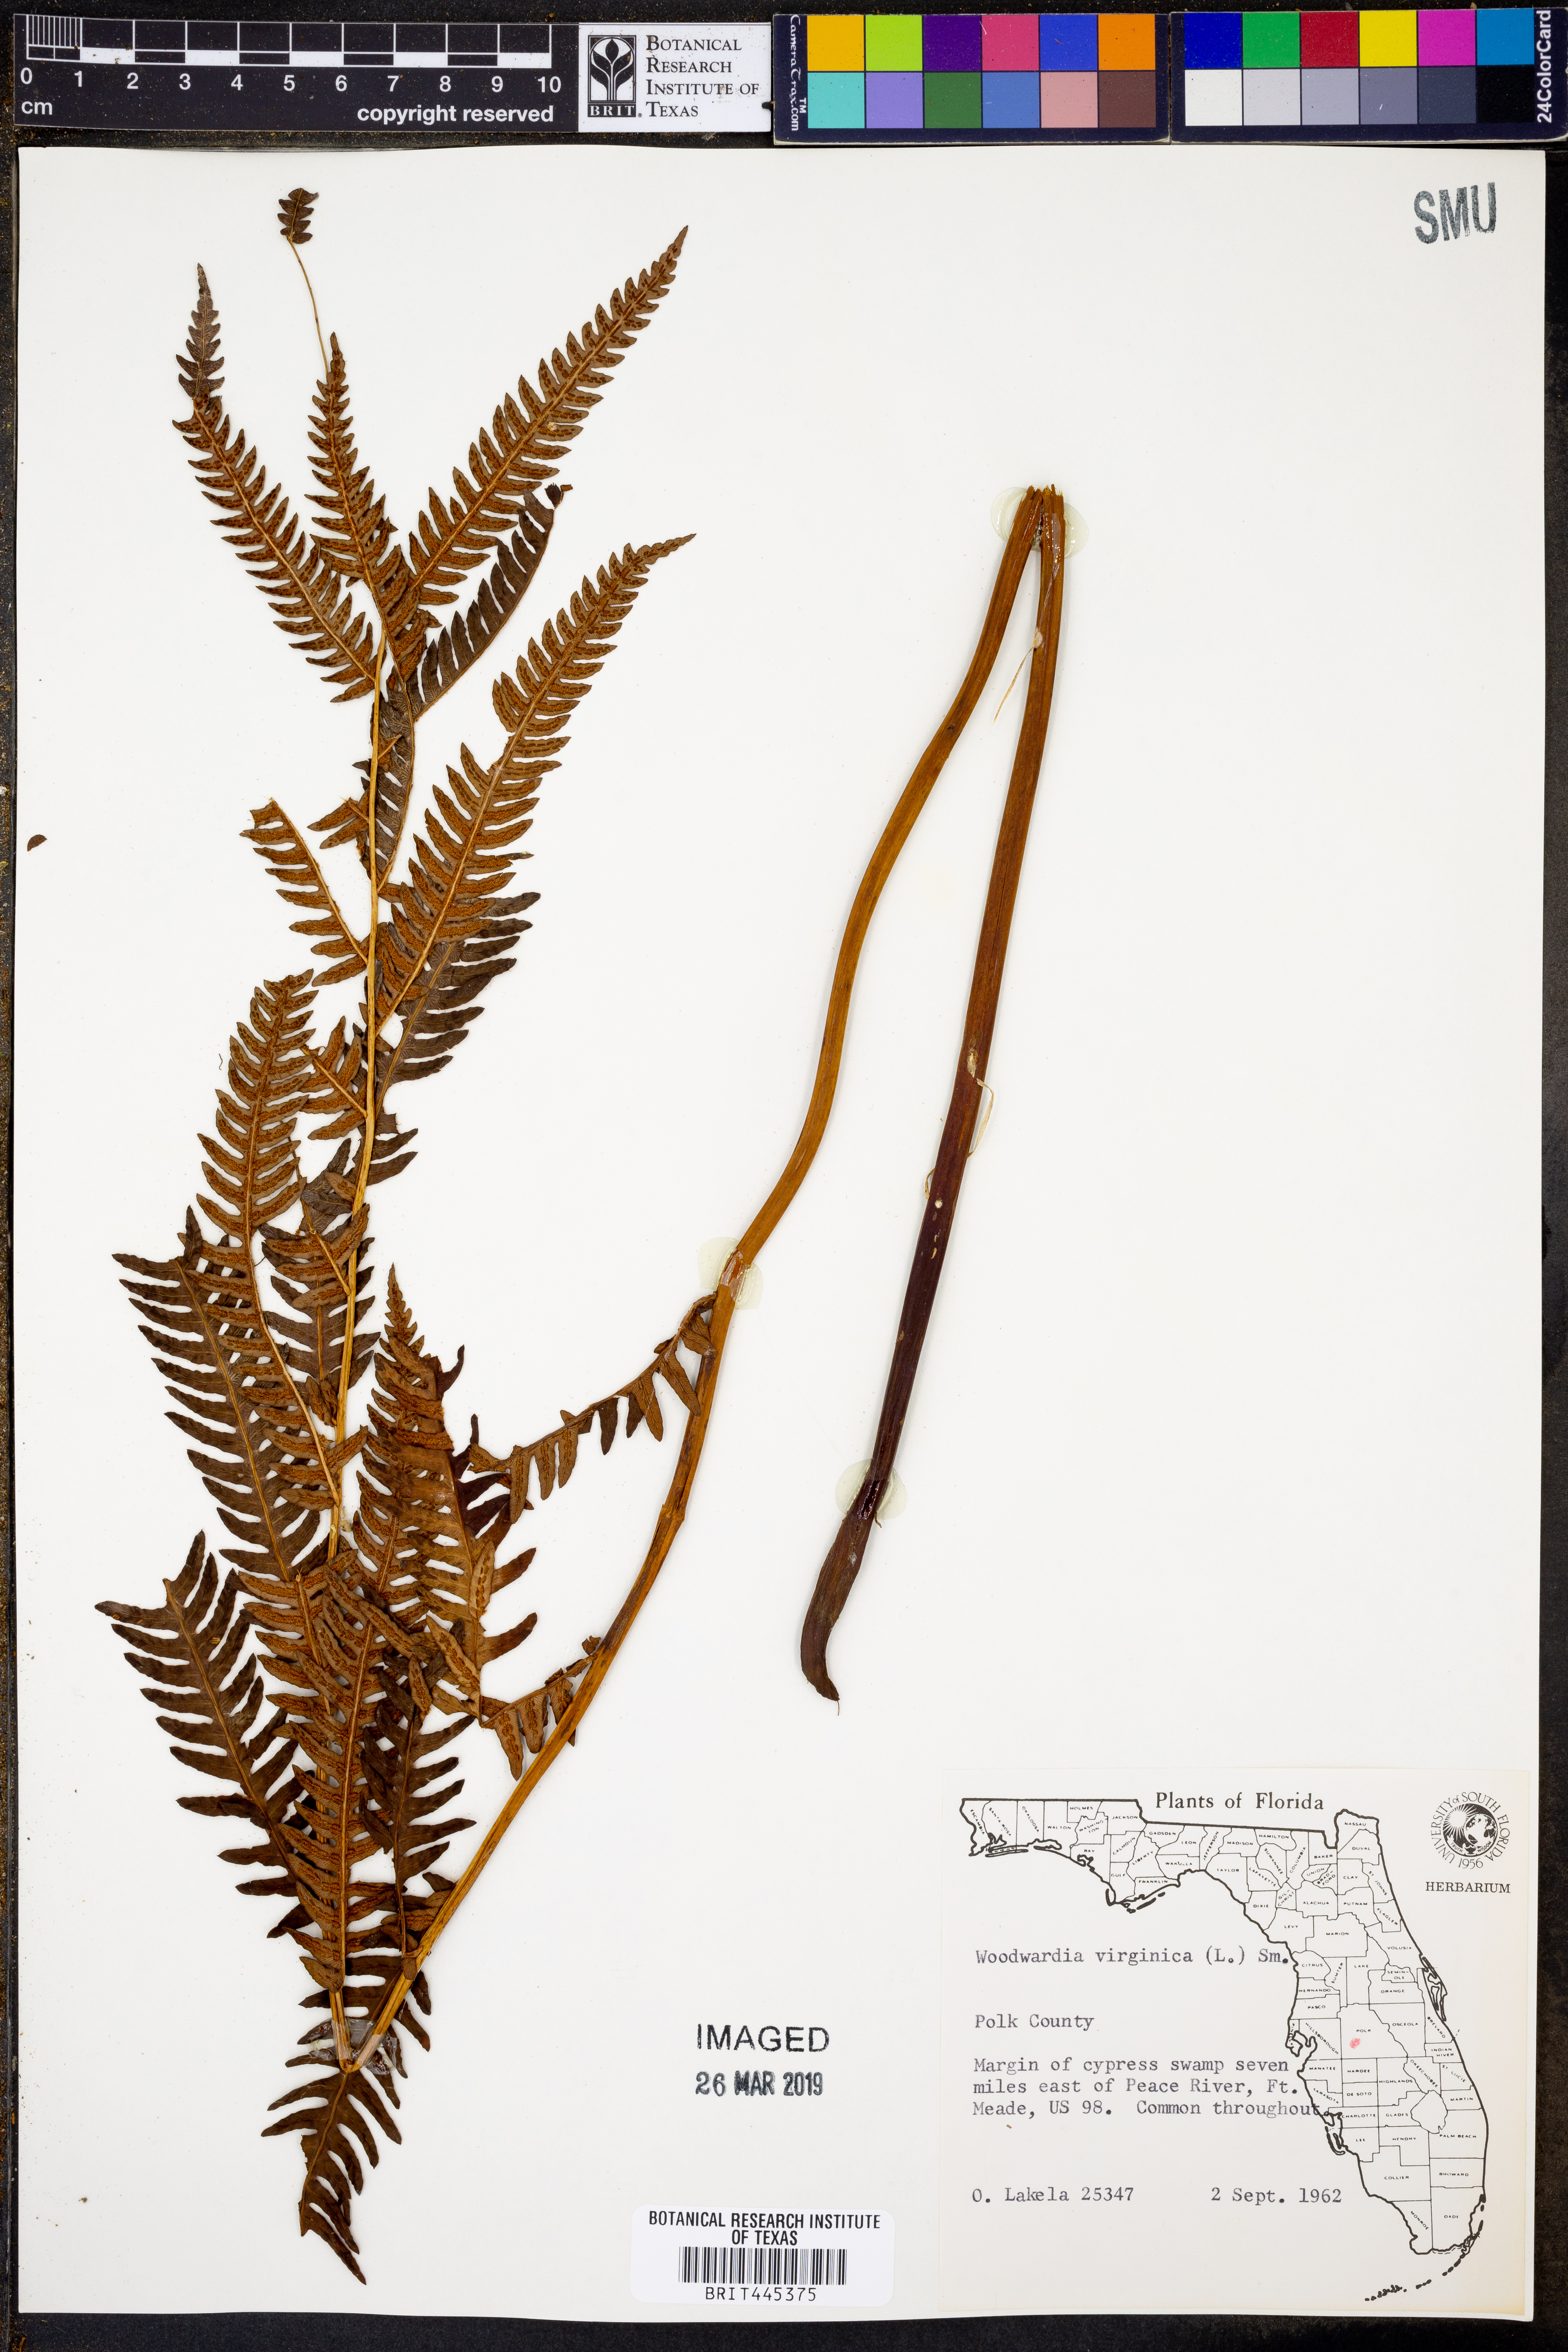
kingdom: Plantae
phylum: Tracheophyta
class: Polypodiopsida
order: Polypodiales
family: Blechnaceae
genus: Anchistea
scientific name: Anchistea virginica
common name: Virginia chain fern
